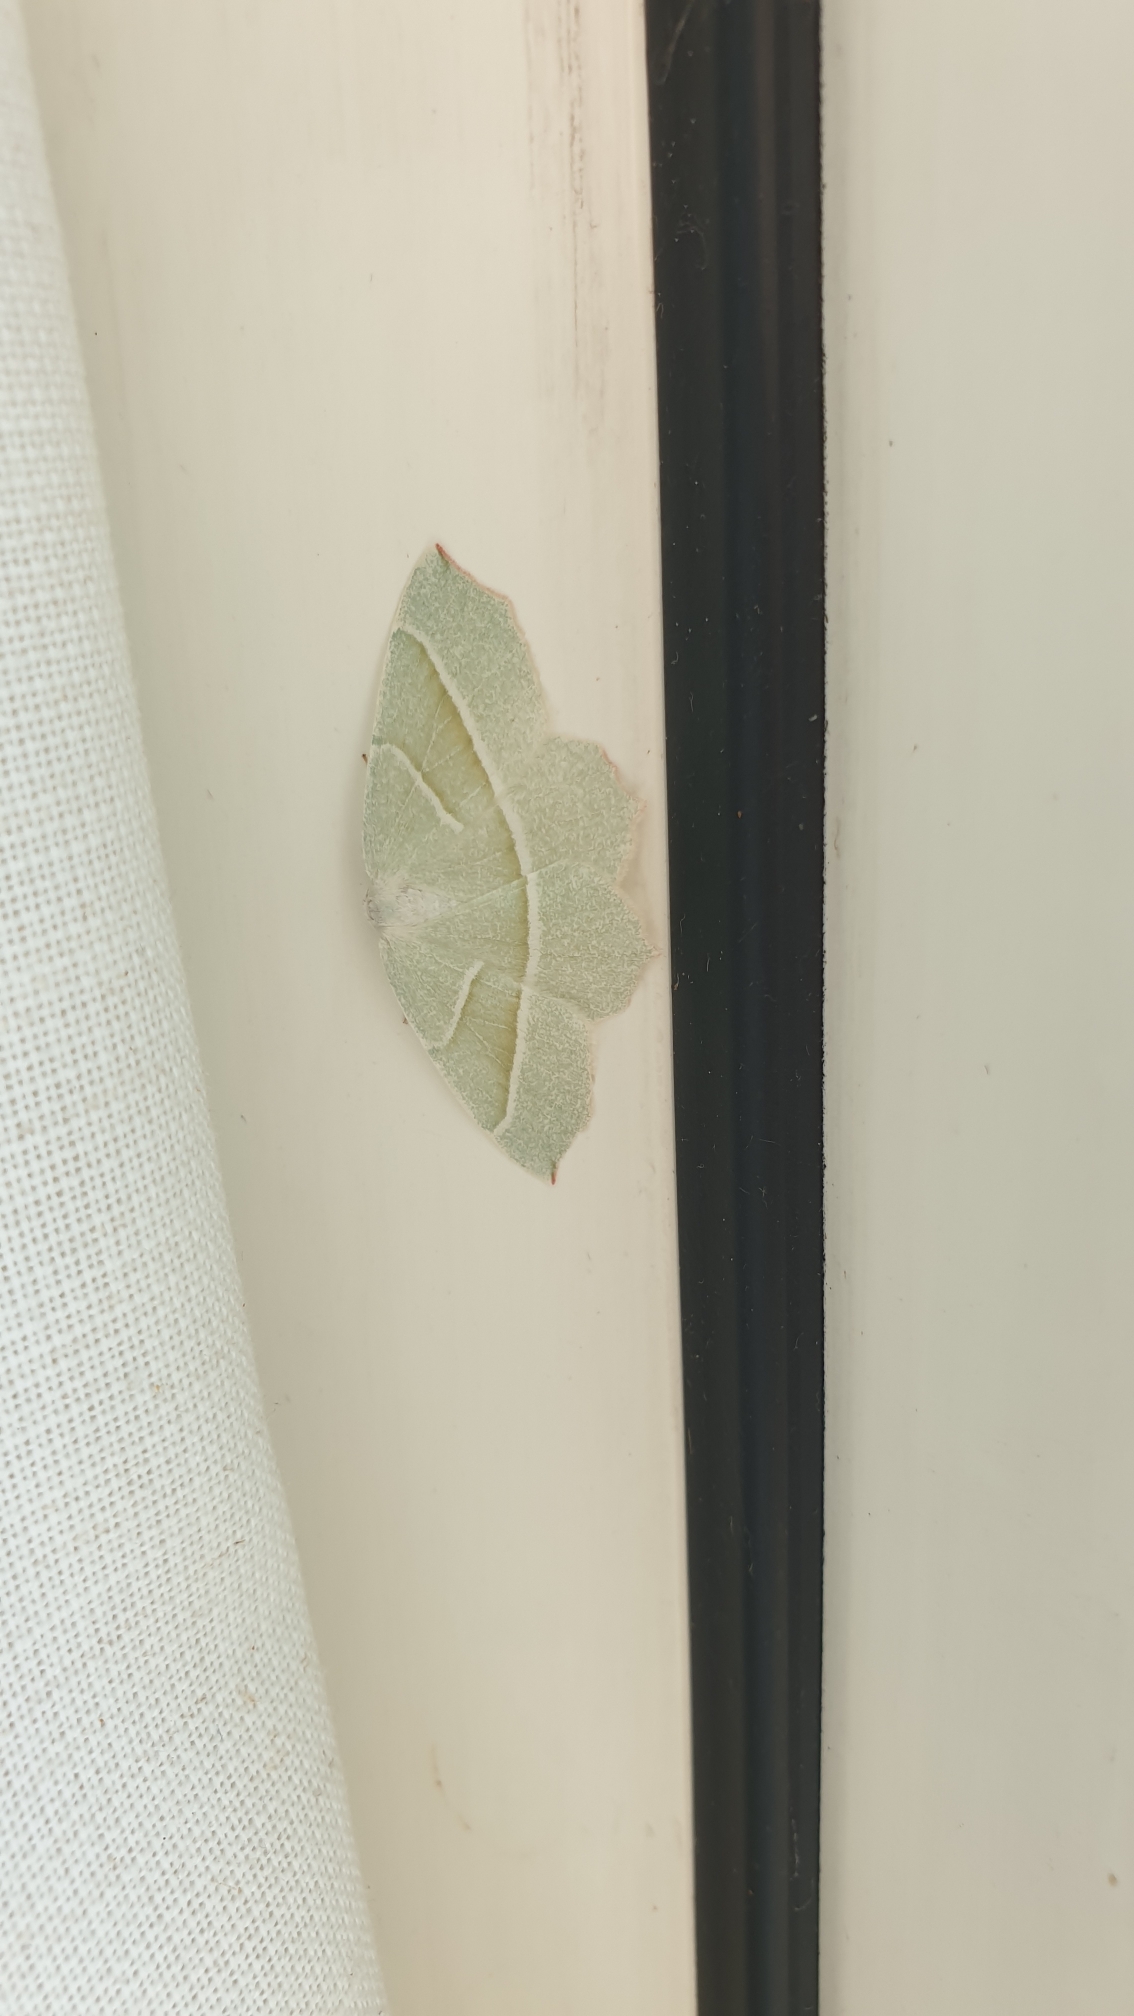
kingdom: Animalia
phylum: Arthropoda
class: Insecta
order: Lepidoptera
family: Geometridae
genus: Campaea
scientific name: Campaea margaritaria
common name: Perlemåler
